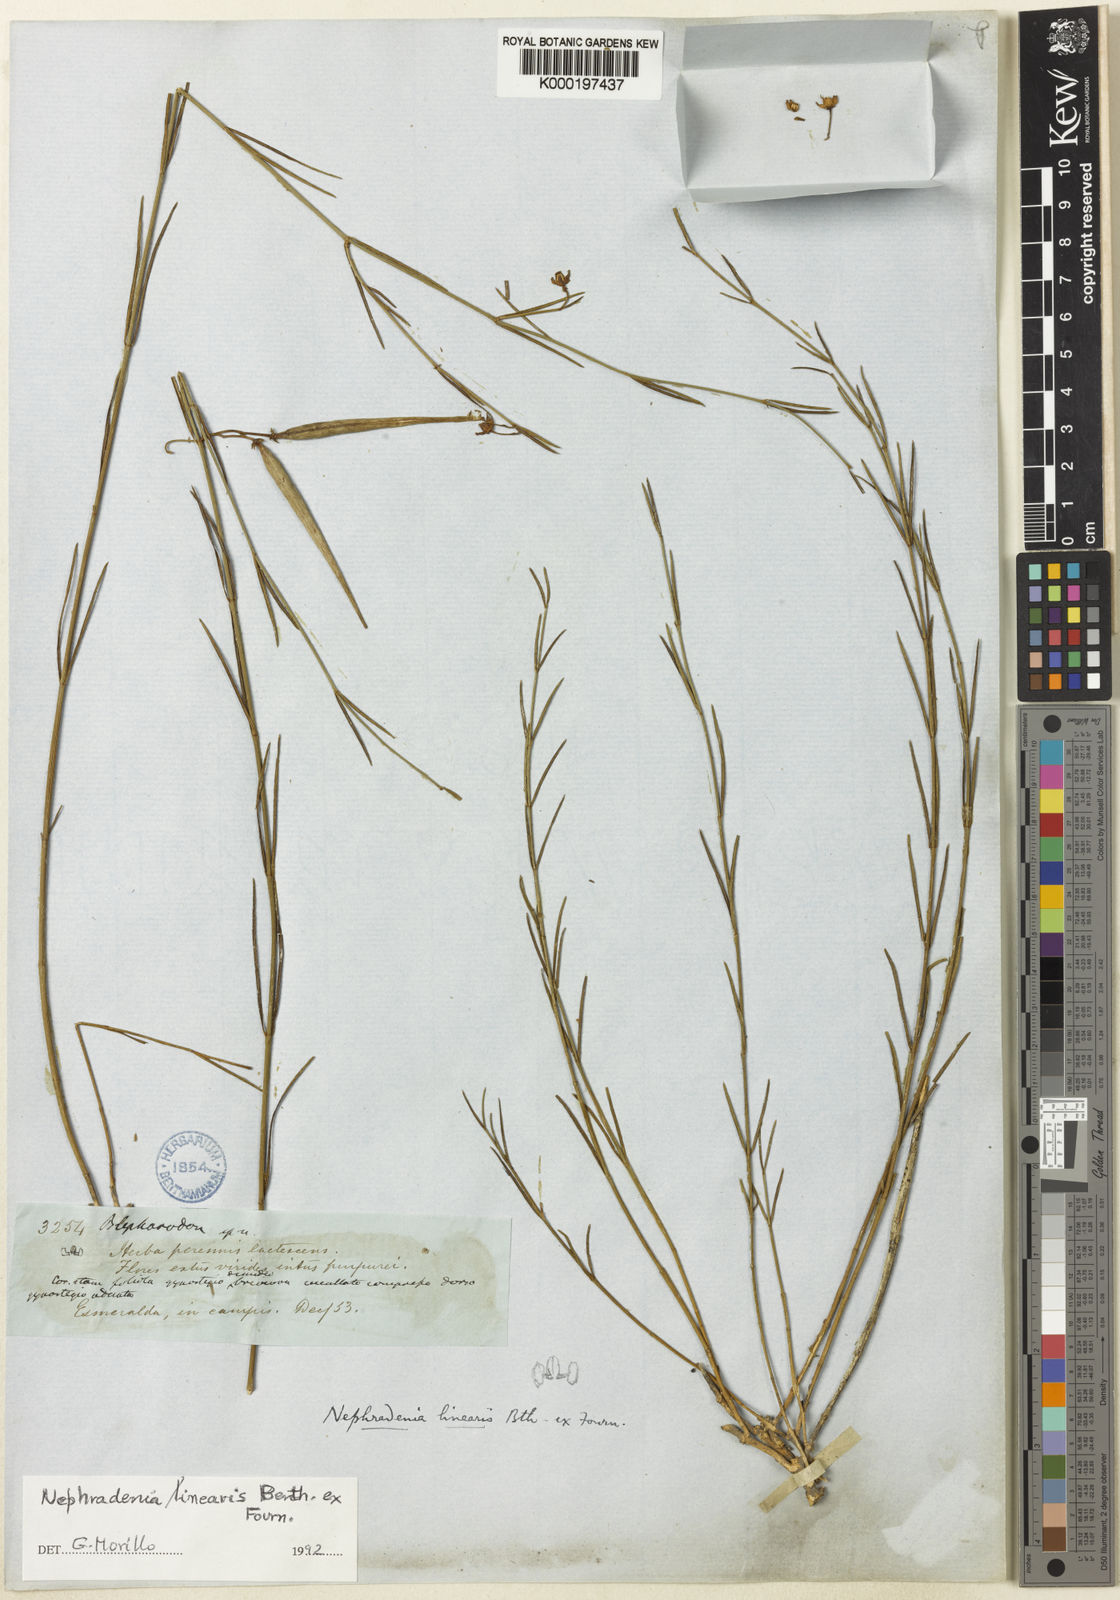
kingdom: Plantae
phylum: Tracheophyta
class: Magnoliopsida
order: Gentianales
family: Apocynaceae
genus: Blepharodon
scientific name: Blepharodon lineare
